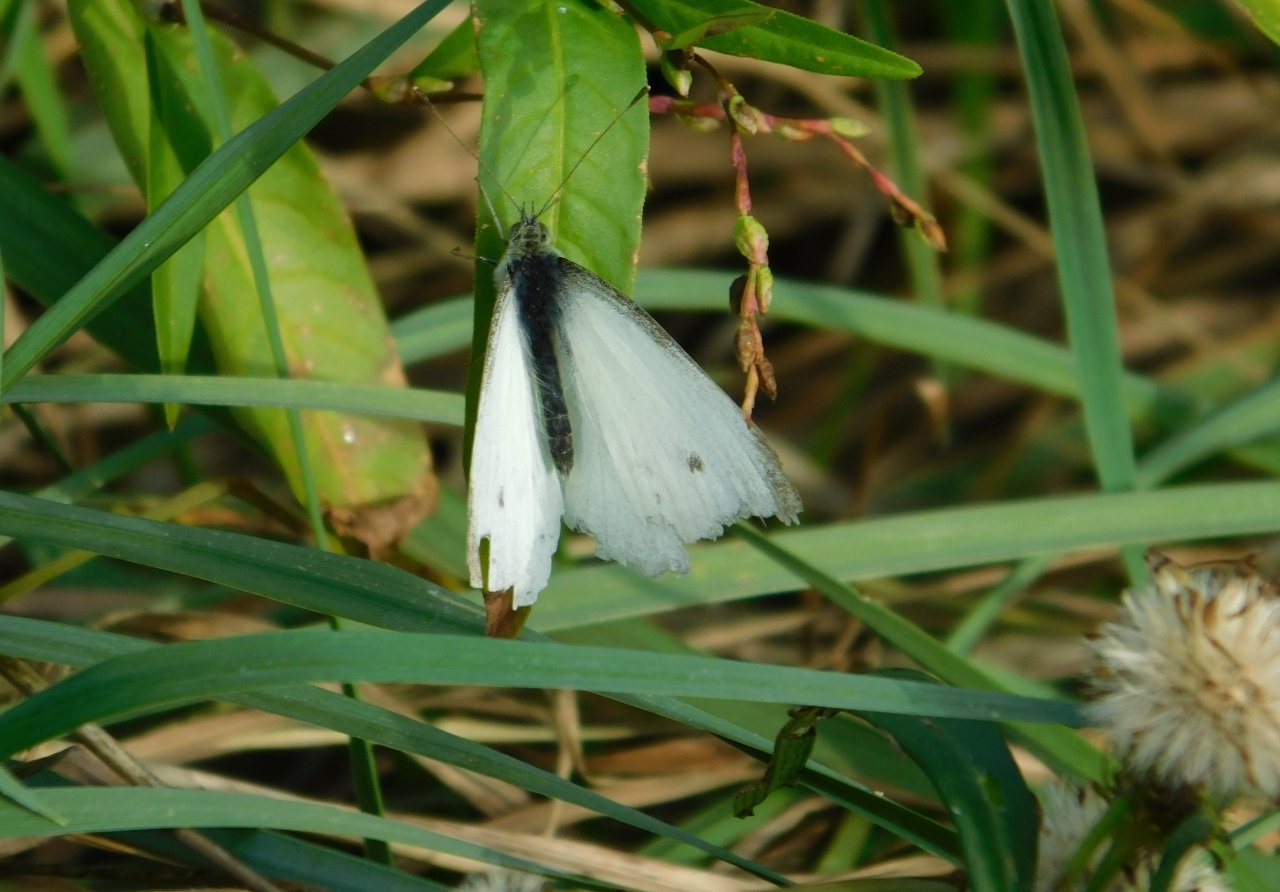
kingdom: Animalia
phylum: Arthropoda
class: Insecta
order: Lepidoptera
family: Pieridae
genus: Pieris
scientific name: Pieris rapae
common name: Cabbage White
